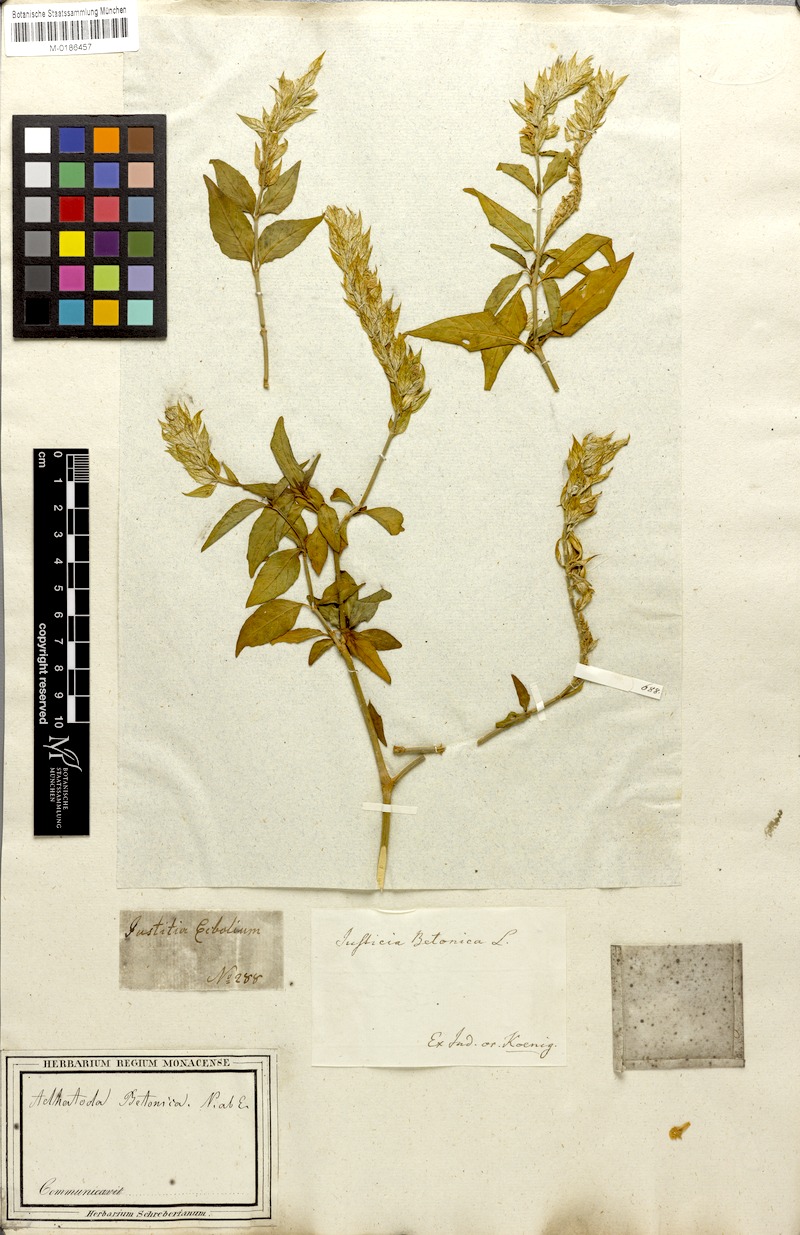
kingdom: Plantae
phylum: Tracheophyta
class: Magnoliopsida
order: Lamiales
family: Acanthaceae
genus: Nicoteba
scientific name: Nicoteba betonica
